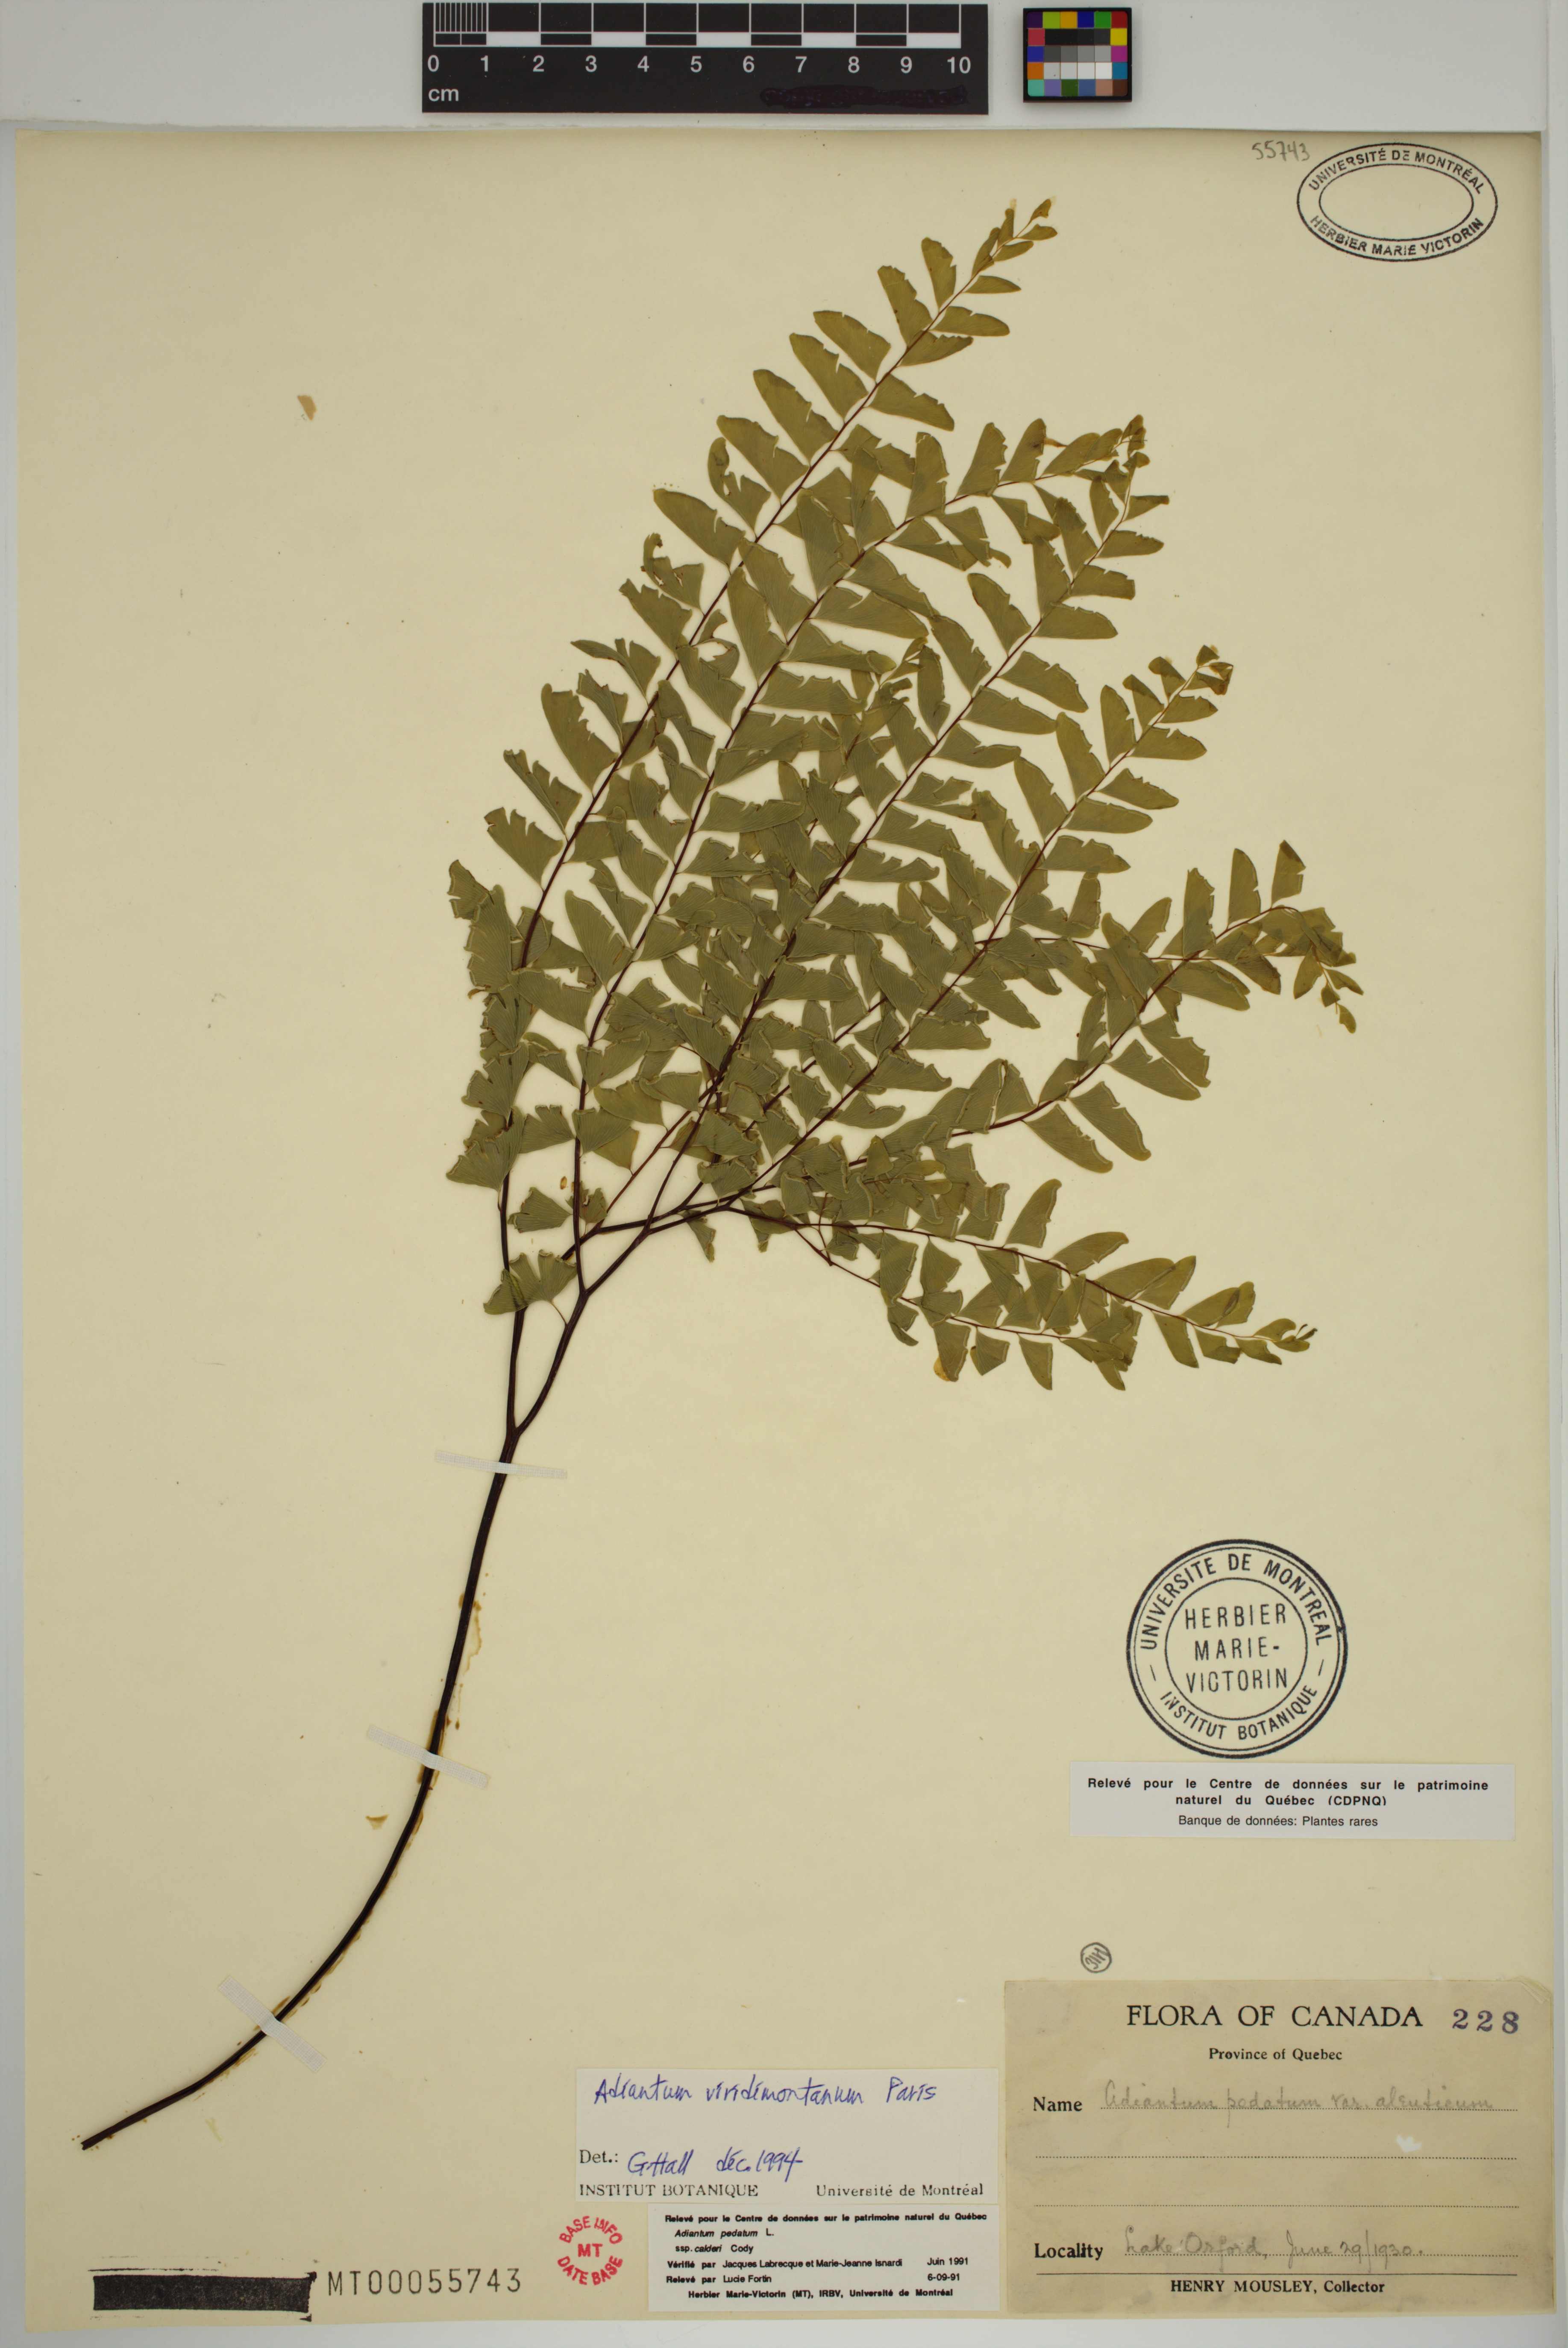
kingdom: Plantae
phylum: Tracheophyta
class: Polypodiopsida
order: Polypodiales
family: Pteridaceae
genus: Adiantum
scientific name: Adiantum viridimontanum
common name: Green mountain maidenhair
